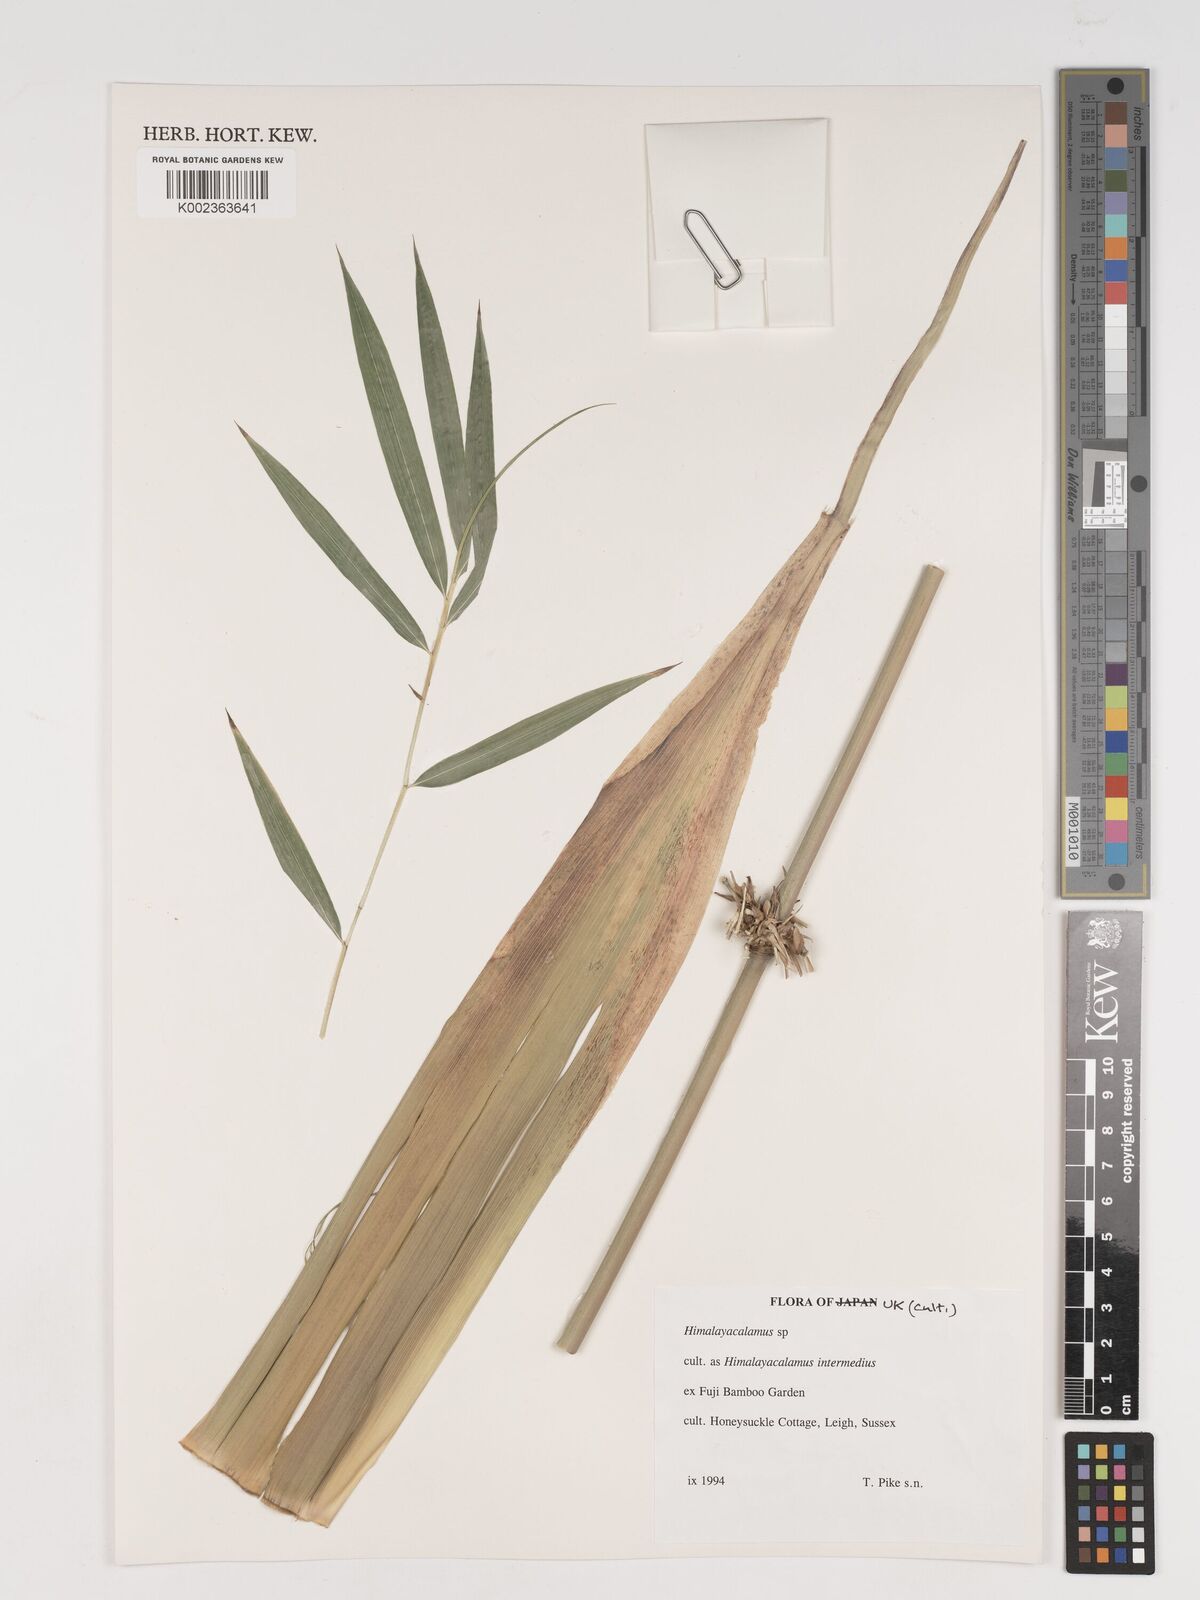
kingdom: Plantae
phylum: Tracheophyta
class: Liliopsida
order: Poales
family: Poaceae
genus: Himalayacalamus
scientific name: Himalayacalamus
